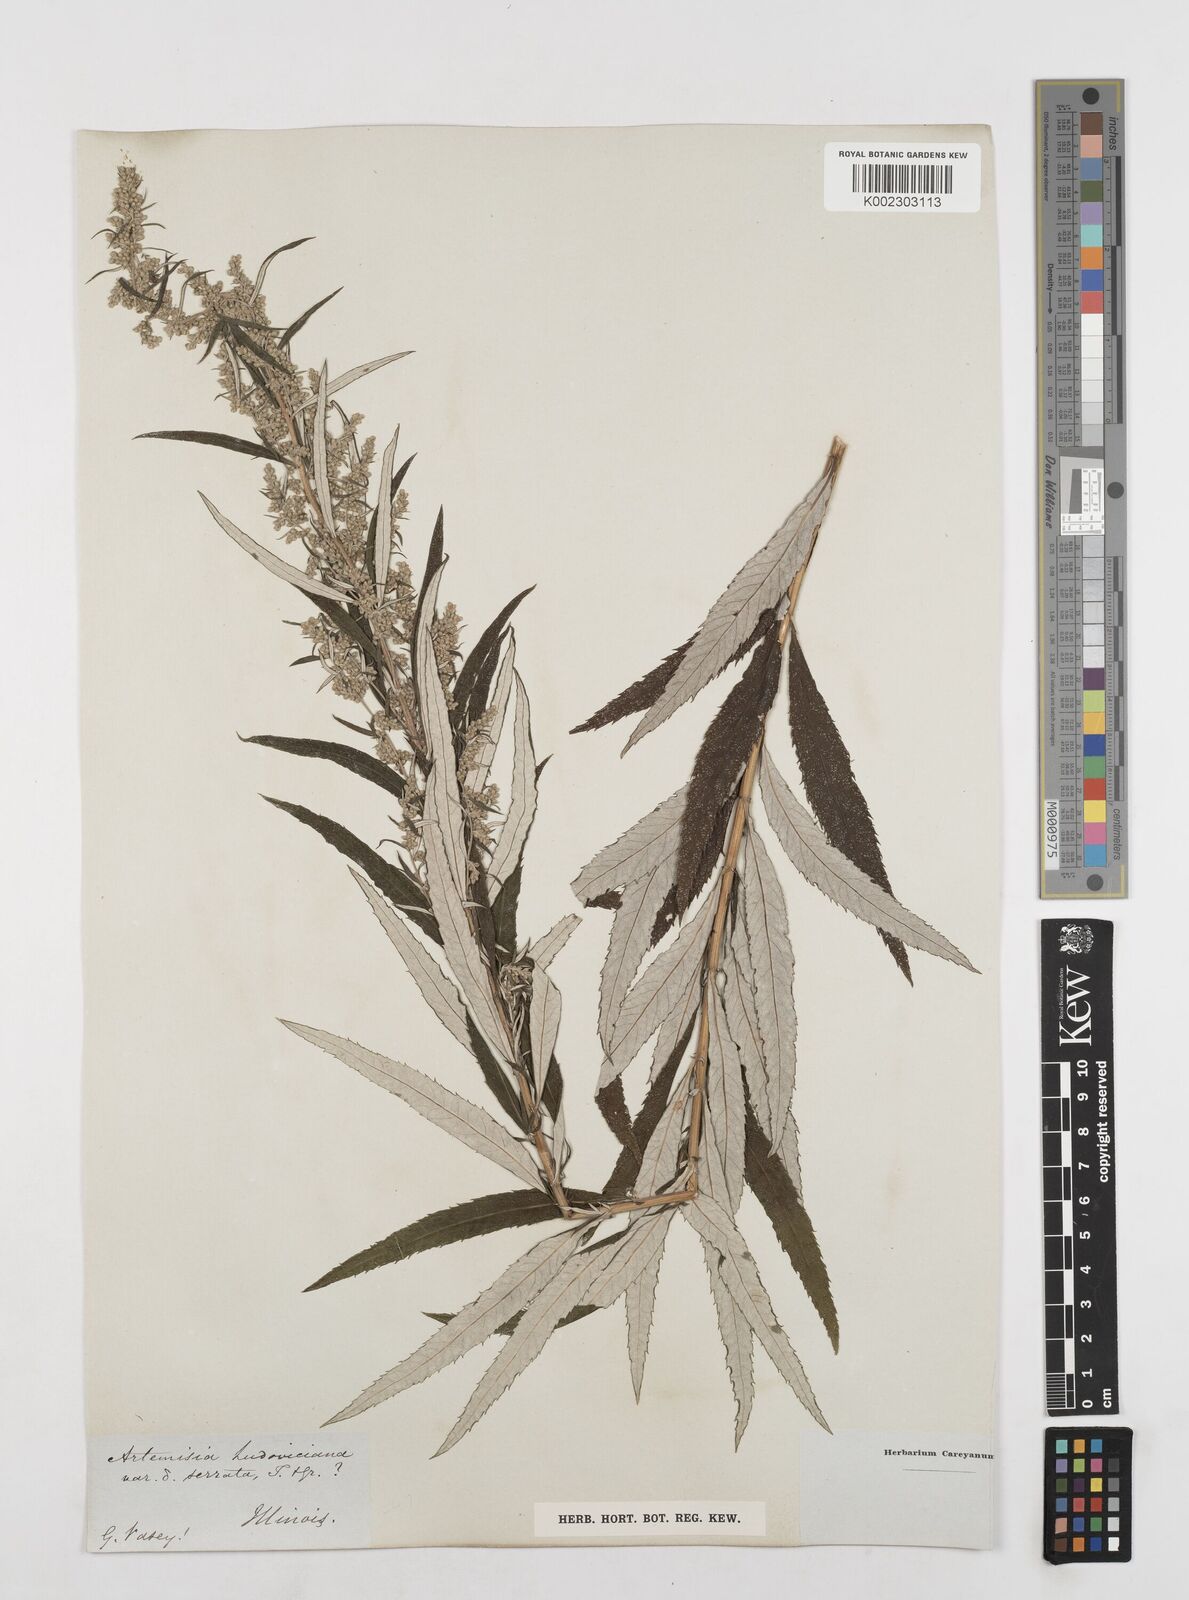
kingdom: Plantae
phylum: Tracheophyta
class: Magnoliopsida
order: Asterales
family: Asteraceae
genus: Artemisia
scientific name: Artemisia serrata
